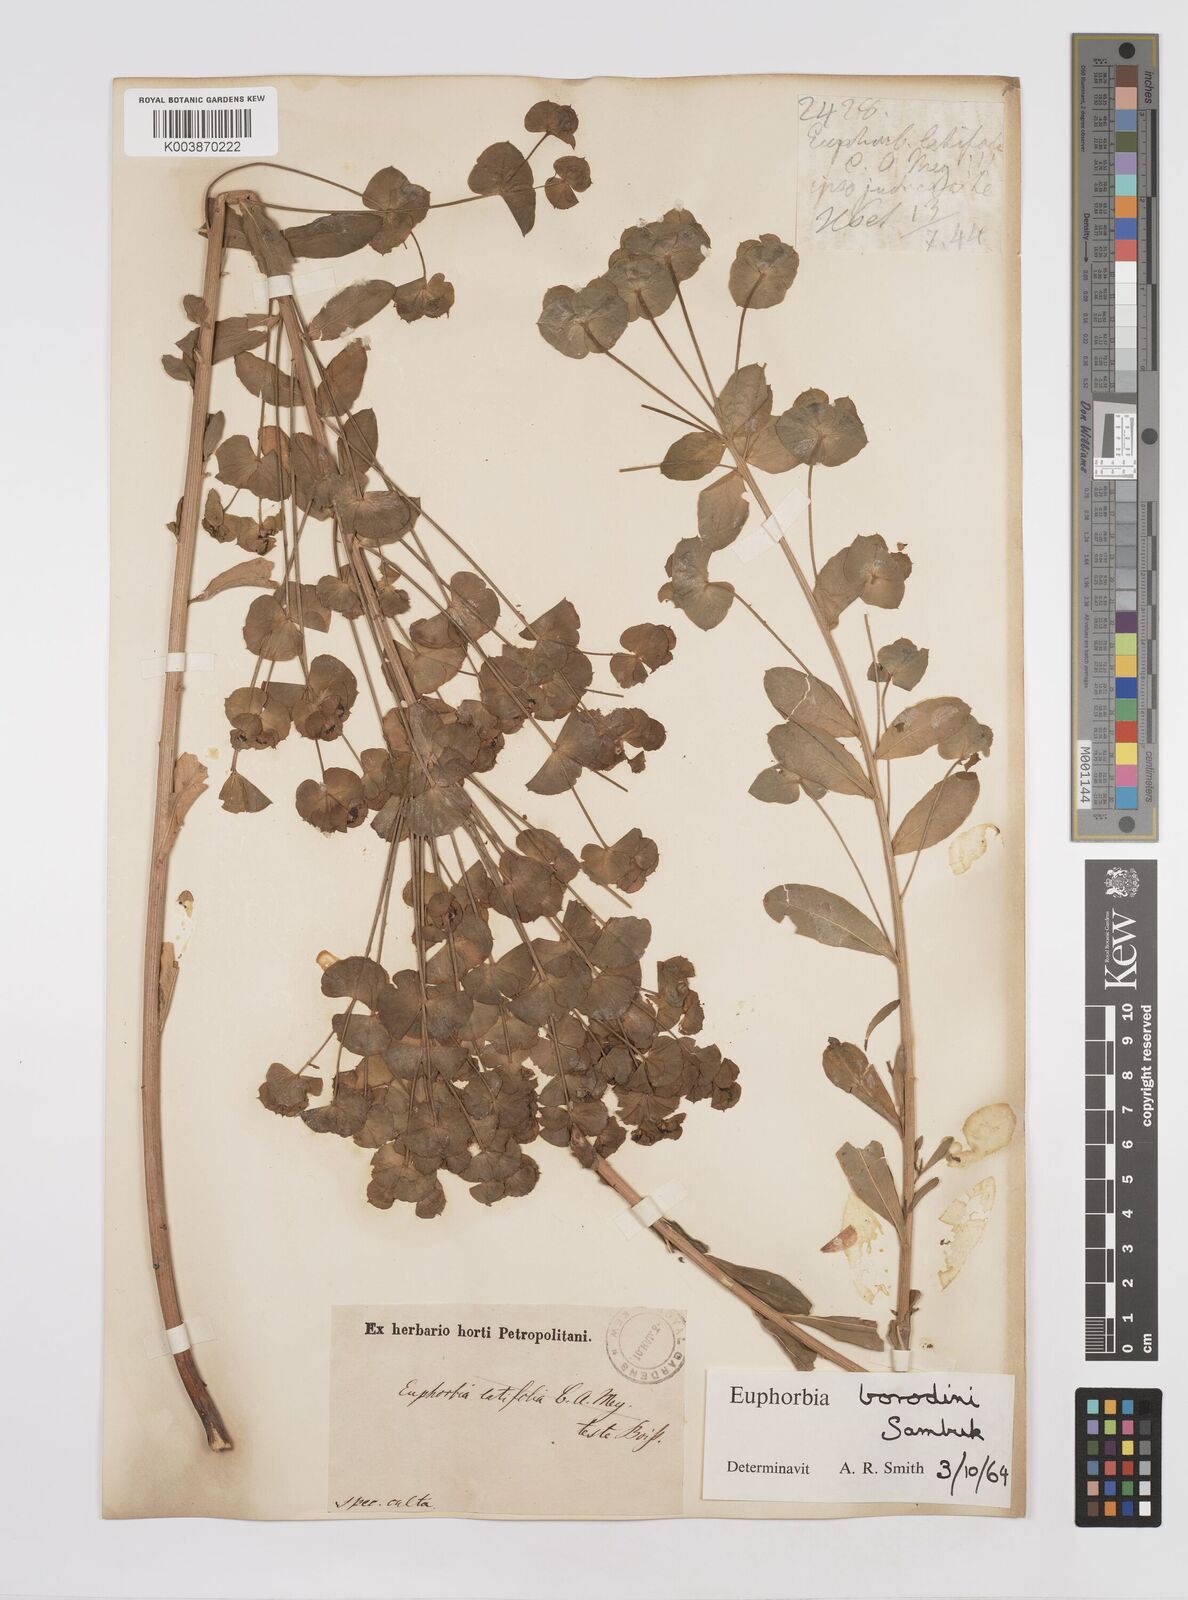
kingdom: Plantae
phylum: Tracheophyta
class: Magnoliopsida
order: Malpighiales
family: Euphorbiaceae
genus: Euphorbia
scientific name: Euphorbia esula
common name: Leafy spurge
